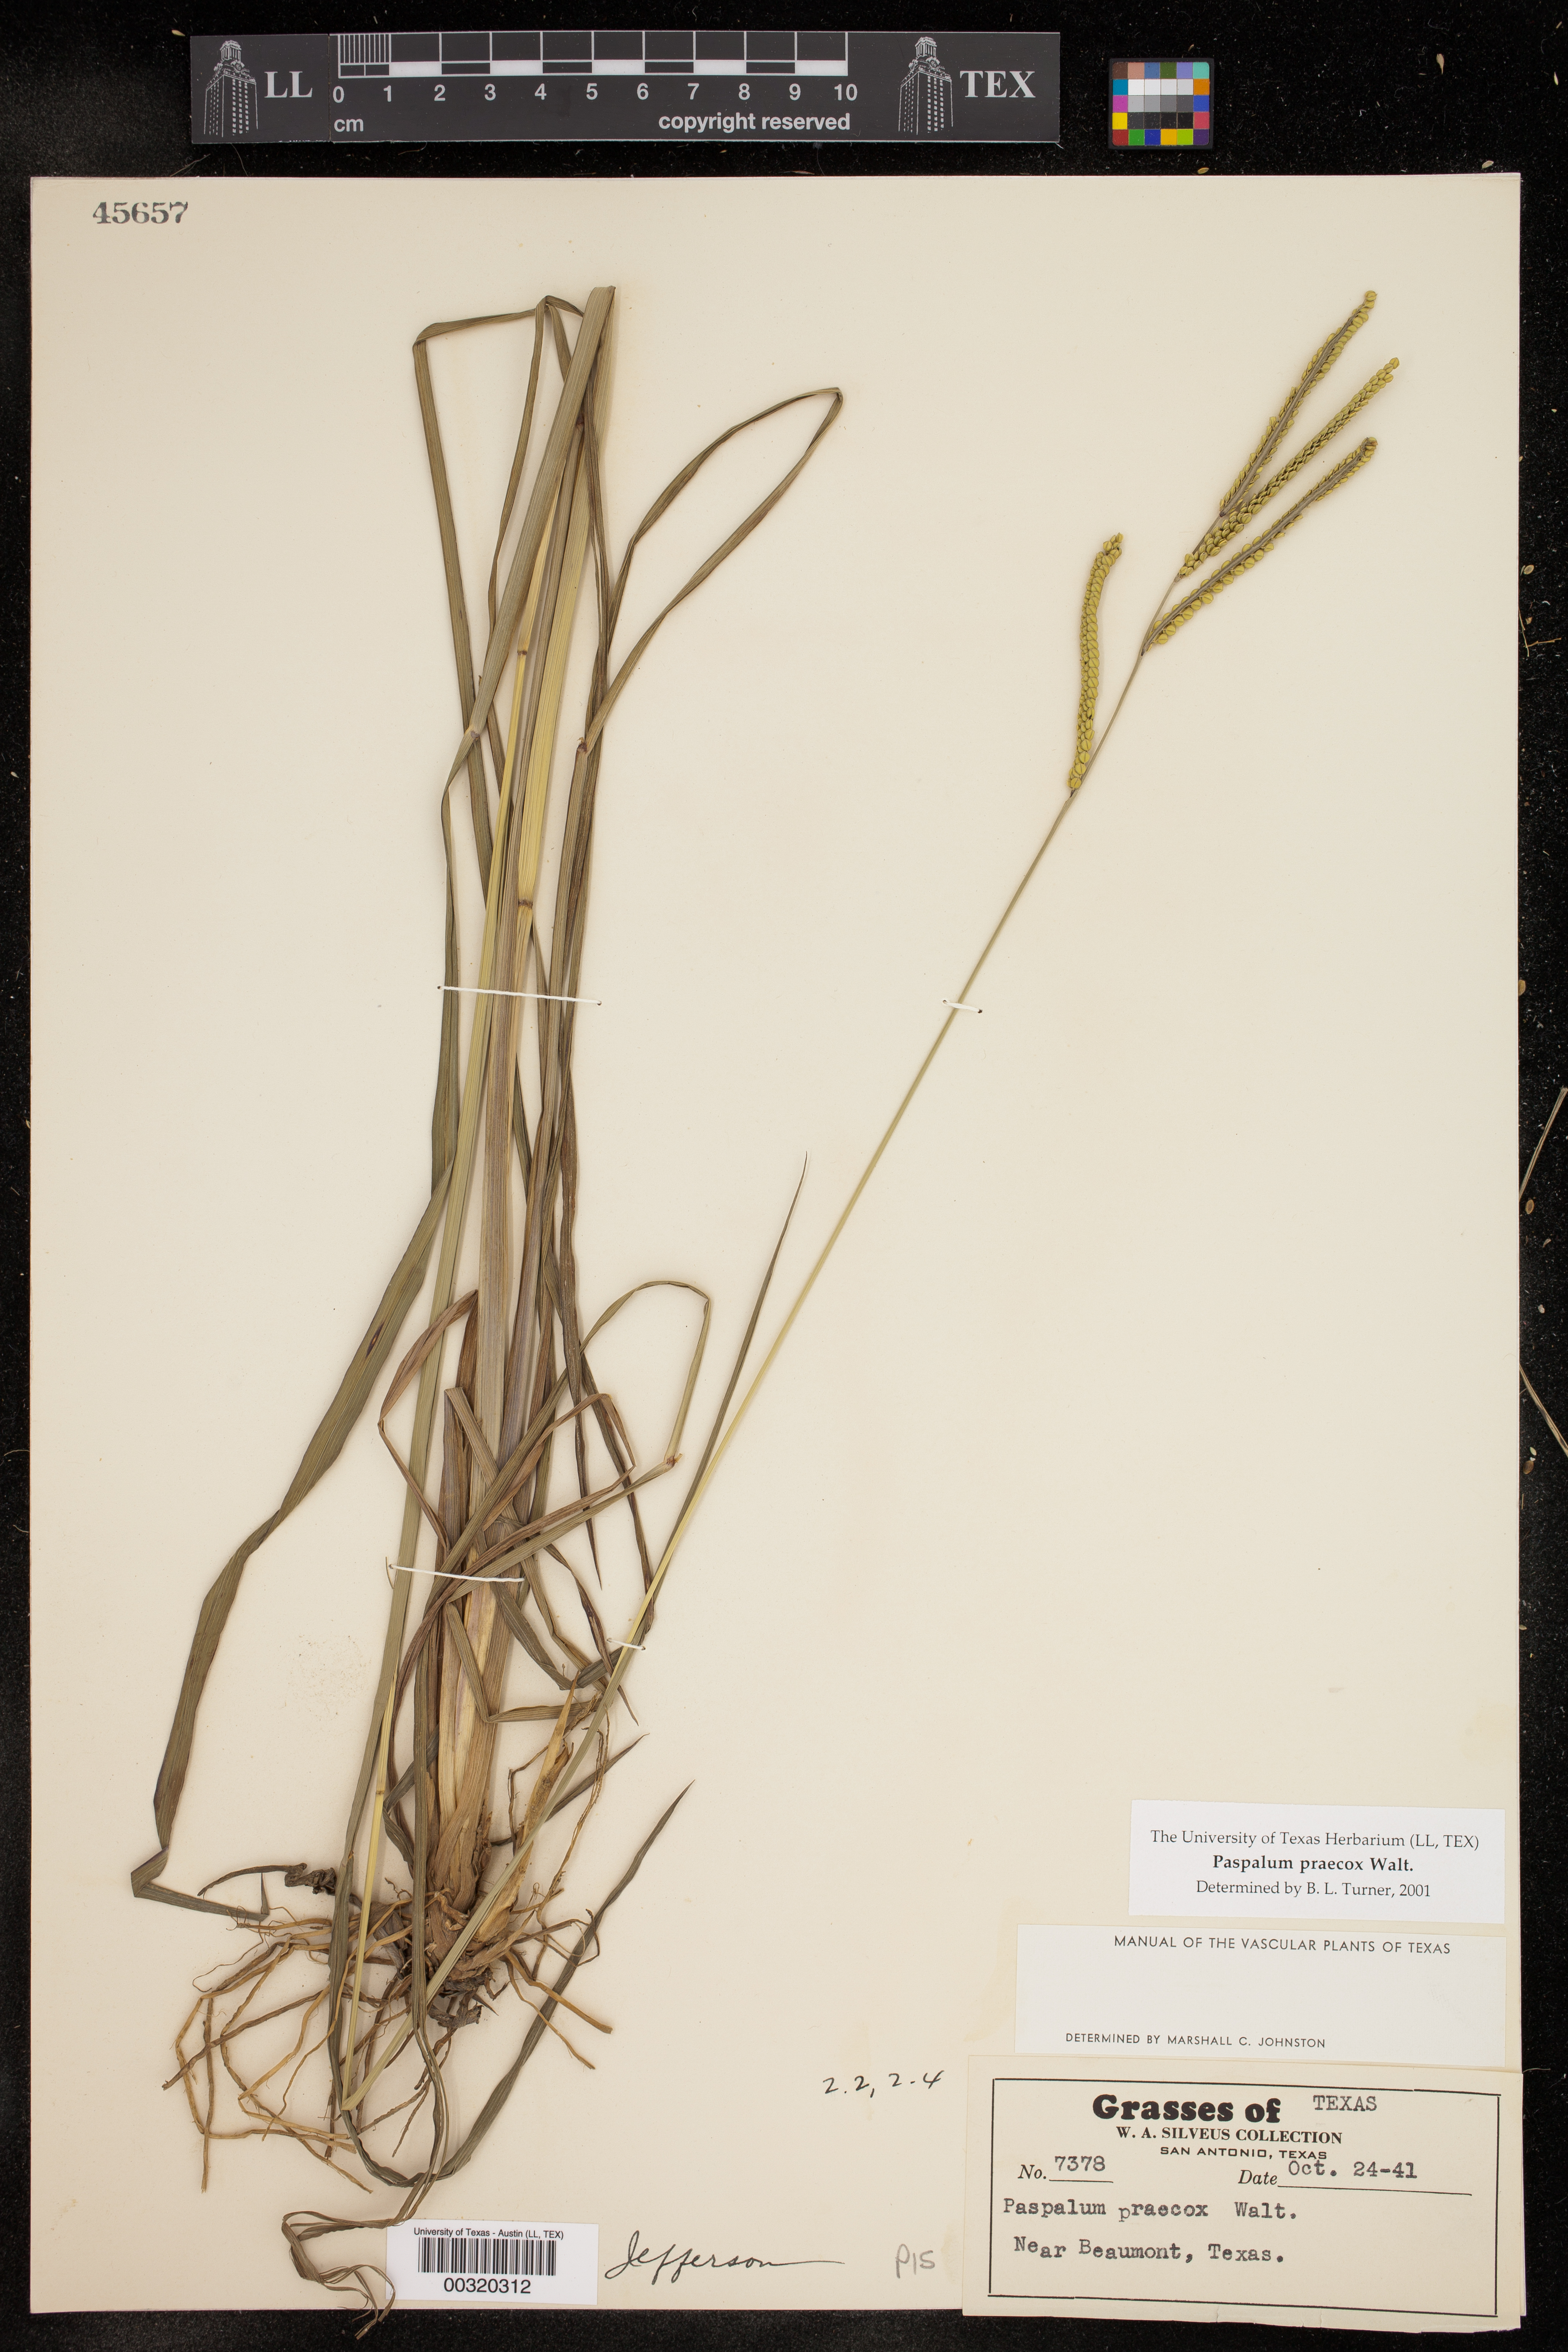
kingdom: Plantae
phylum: Tracheophyta
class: Liliopsida
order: Poales
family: Poaceae
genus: Paspalum
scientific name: Paspalum praecox
